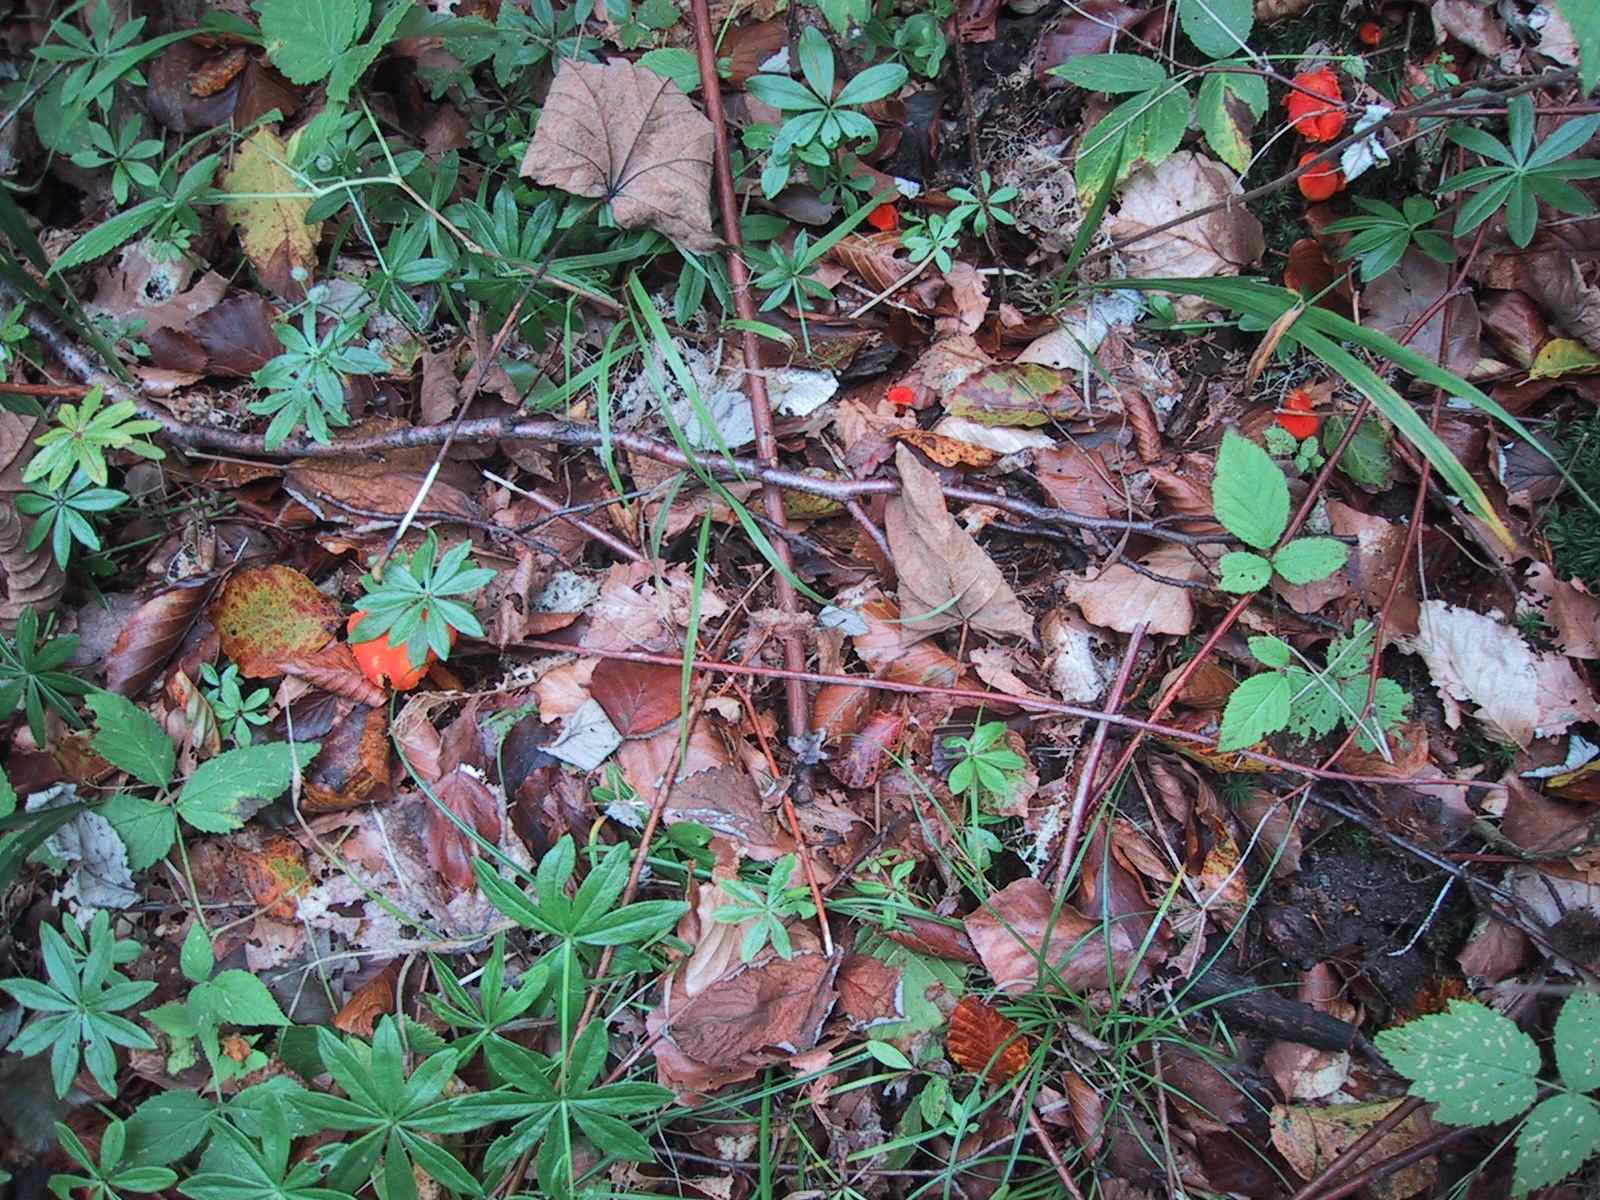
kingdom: Fungi
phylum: Basidiomycota
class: Agaricomycetes
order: Agaricales
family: Hygrophoraceae
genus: Hygrocybe
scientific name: Hygrocybe miniata
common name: mønje-vokshat
